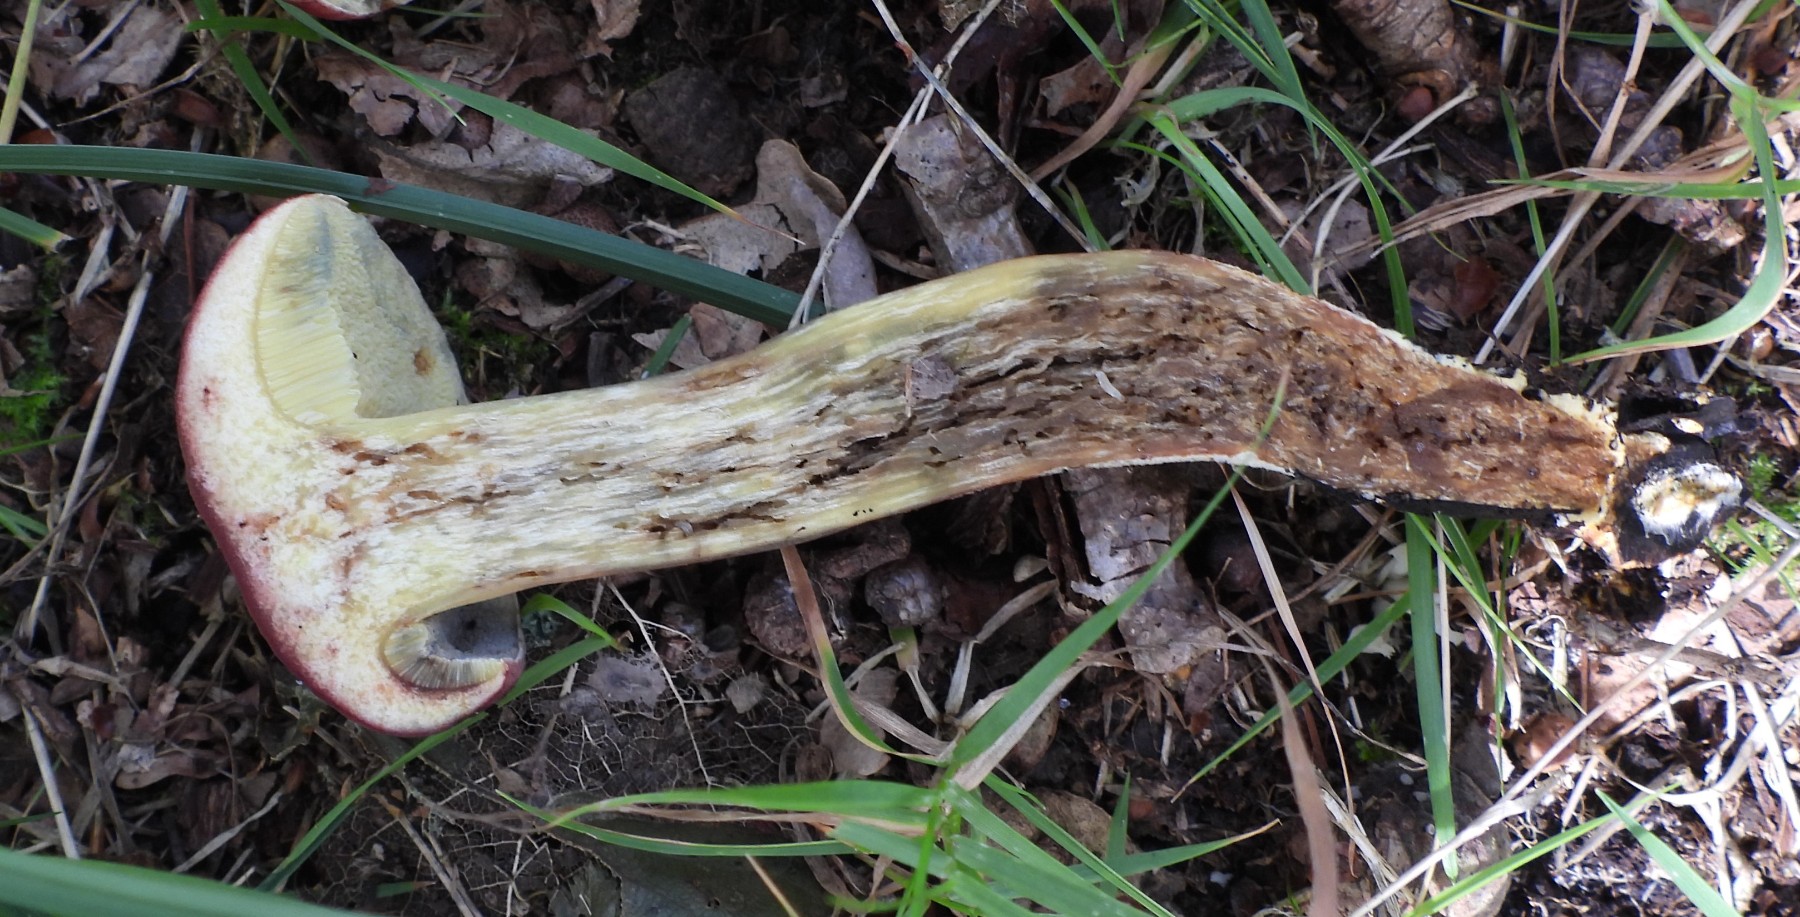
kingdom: Fungi
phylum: Basidiomycota
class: Agaricomycetes
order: Boletales
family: Boletaceae
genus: Hortiboletus
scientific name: Hortiboletus rubellus
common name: blodrød rørhat
